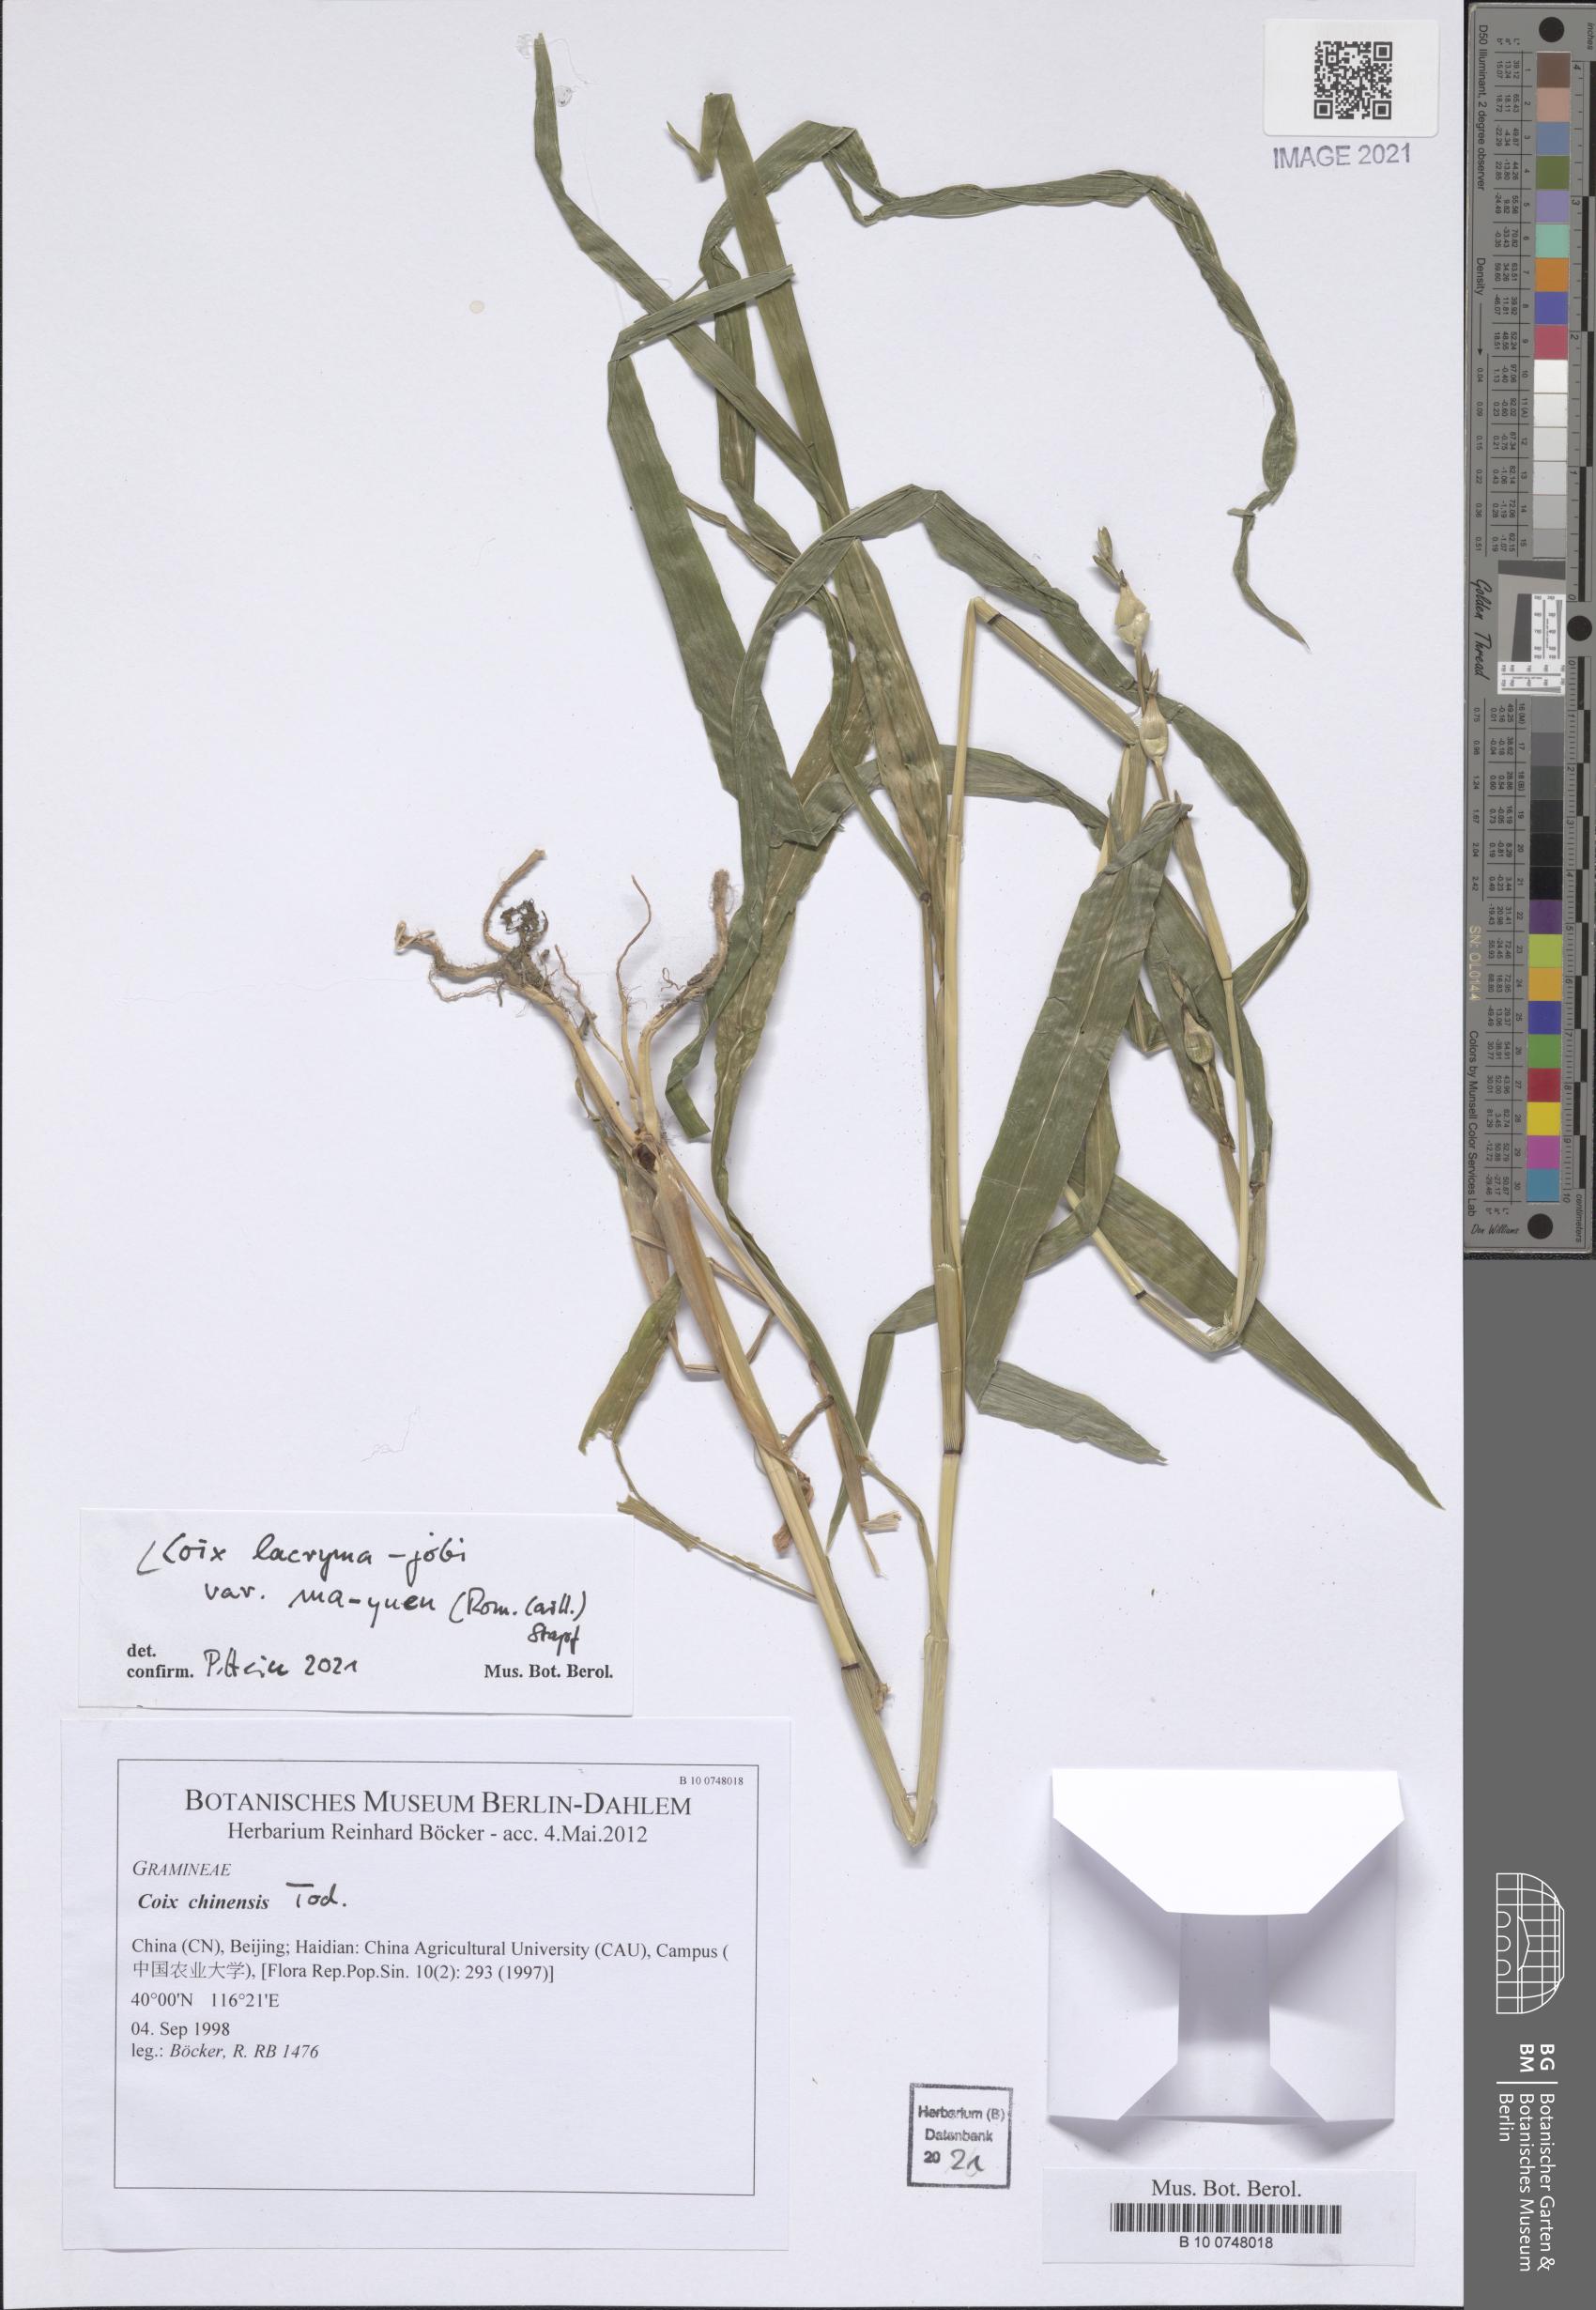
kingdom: Plantae
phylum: Tracheophyta
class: Liliopsida
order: Poales
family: Poaceae
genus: Coix
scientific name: Coix lacryma-jobi
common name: Job's tears
